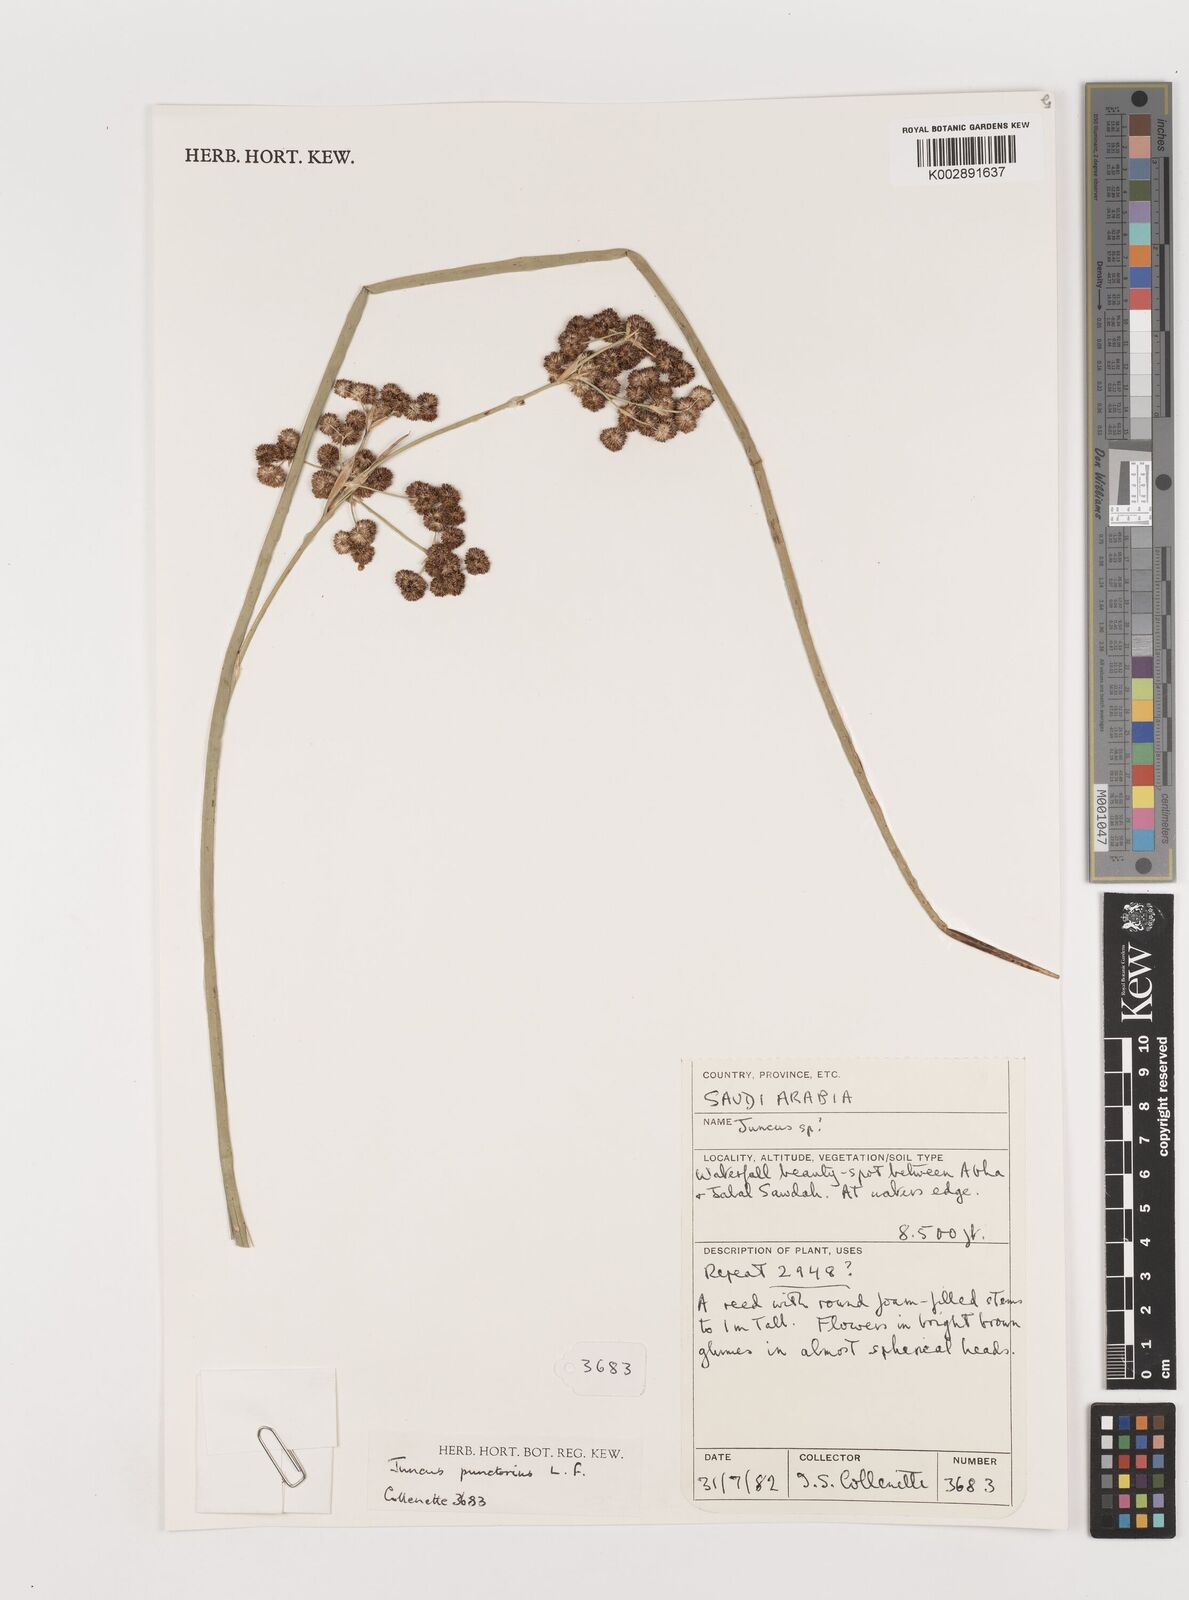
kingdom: Plantae
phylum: Tracheophyta
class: Liliopsida
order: Poales
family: Juncaceae
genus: Juncus
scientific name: Juncus punctorius
